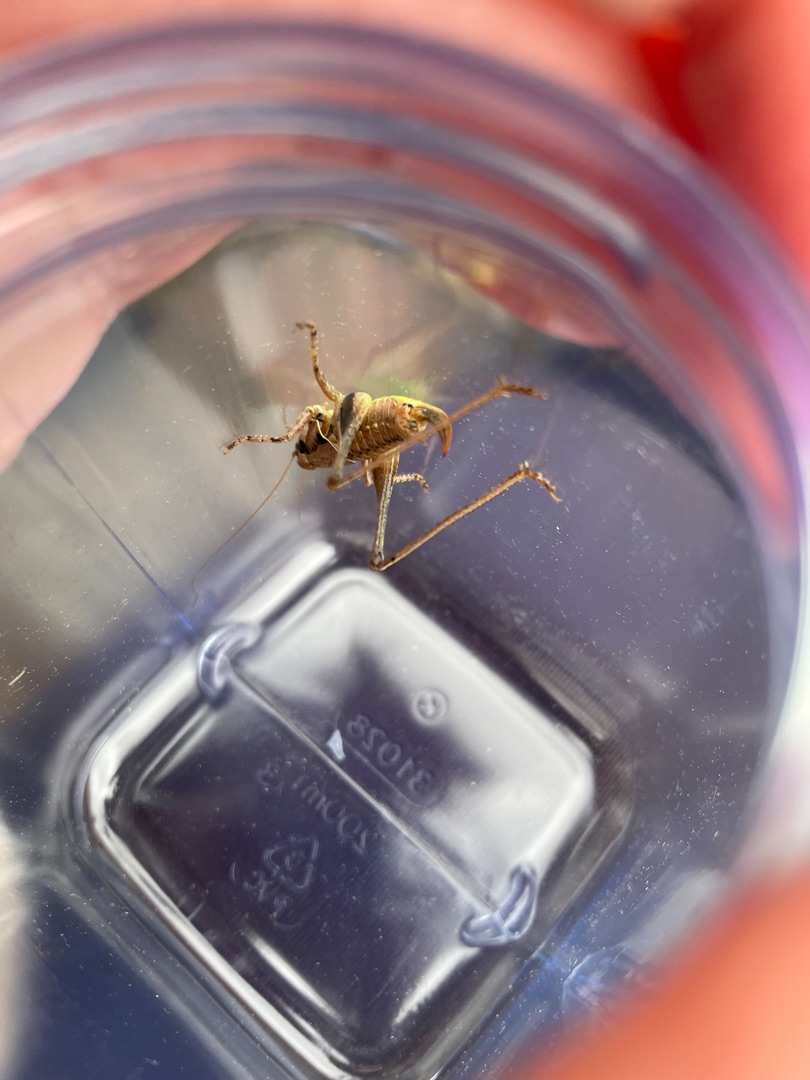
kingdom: Animalia
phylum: Arthropoda
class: Insecta
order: Orthoptera
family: Tettigoniidae
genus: Pholidoptera
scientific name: Pholidoptera griseoaptera
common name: Buskgræshoppe
